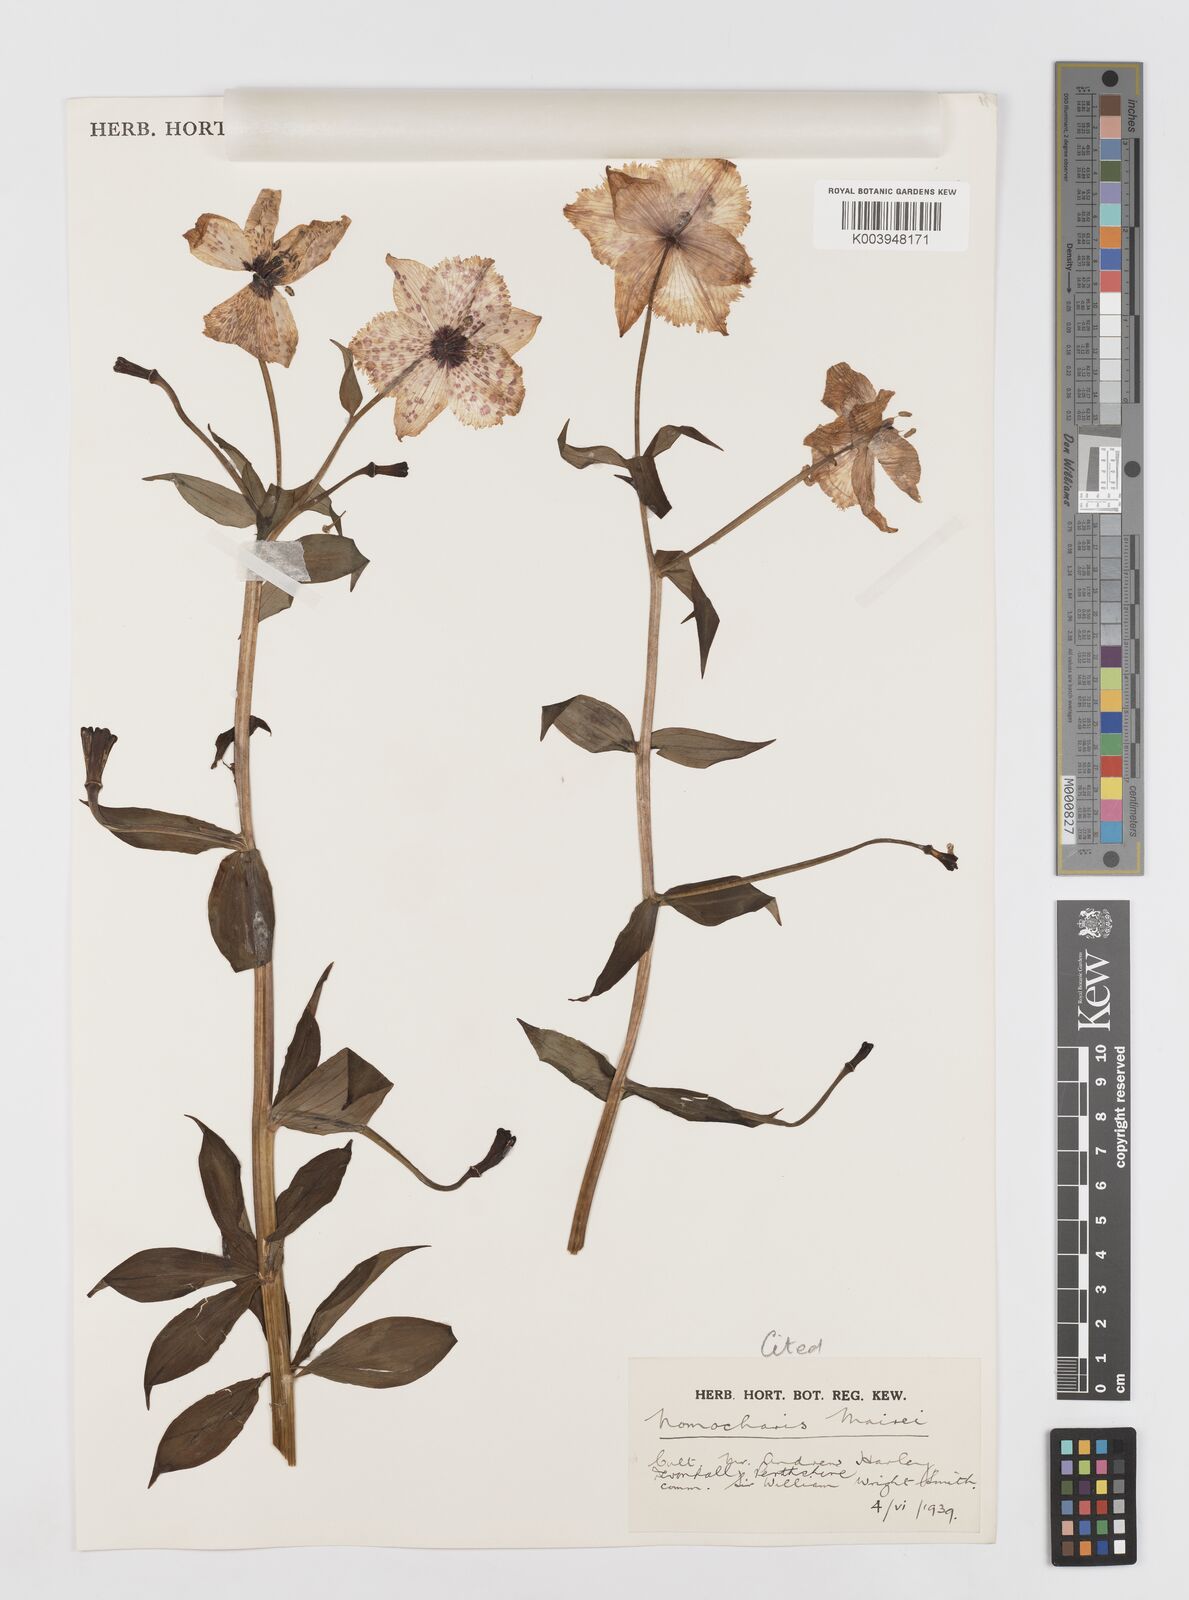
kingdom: Plantae
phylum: Tracheophyta
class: Liliopsida
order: Liliales
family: Liliaceae
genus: Lilium
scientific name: Lilium pardanthinum
